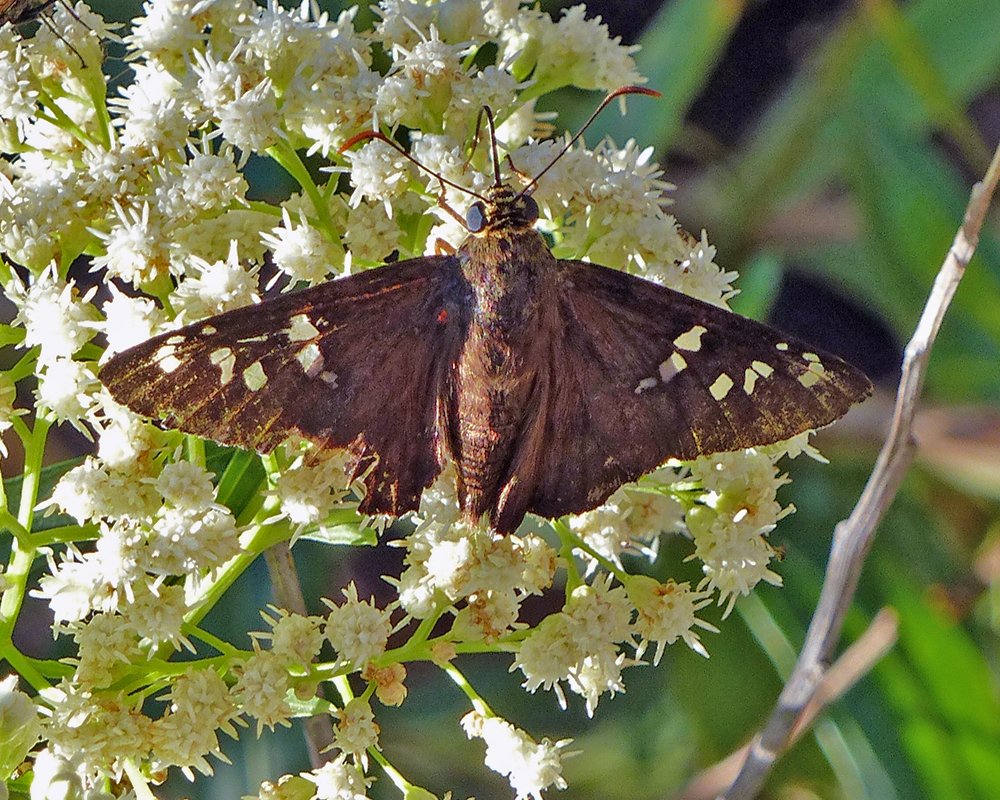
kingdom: Animalia
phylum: Arthropoda
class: Insecta
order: Lepidoptera
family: Hesperiidae
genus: Pyrrhopyge
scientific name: Pyrrhopyge araxes
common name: Dull Firetip
